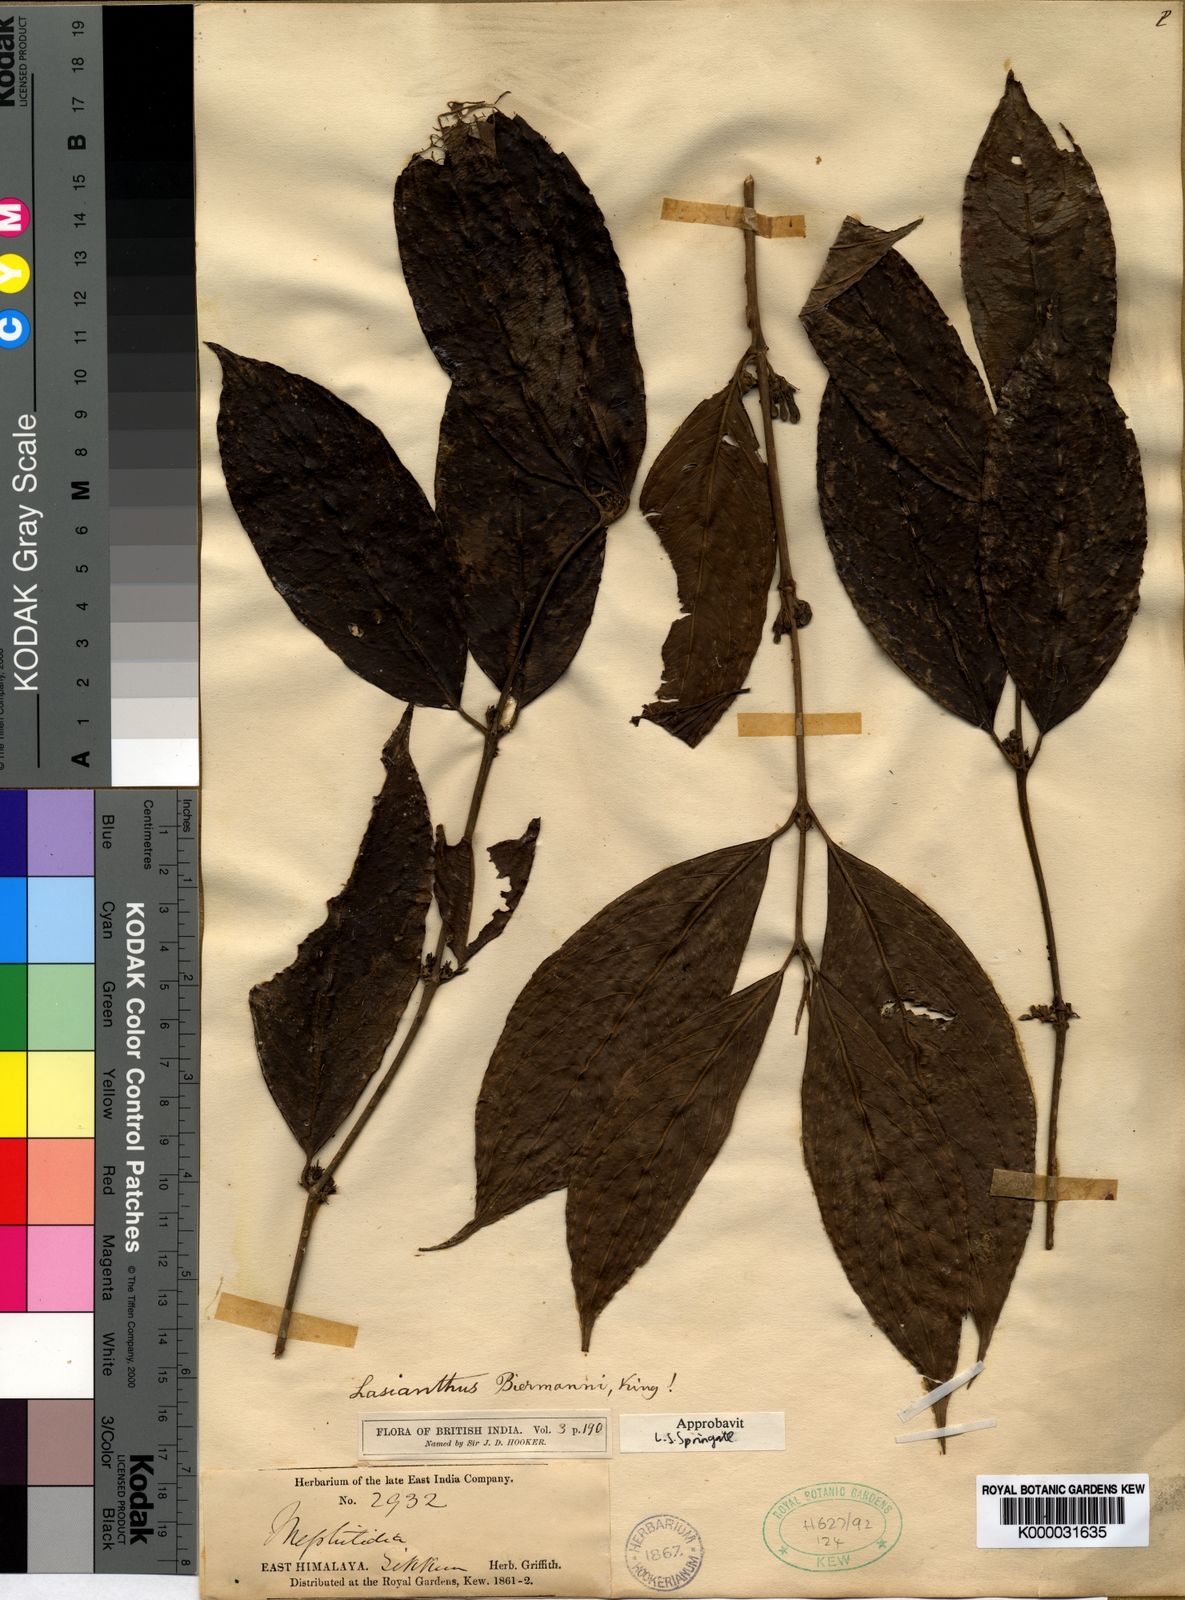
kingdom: Plantae
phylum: Tracheophyta
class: Magnoliopsida
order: Gentianales
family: Rubiaceae
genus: Lasianthus
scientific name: Lasianthus biermannii
